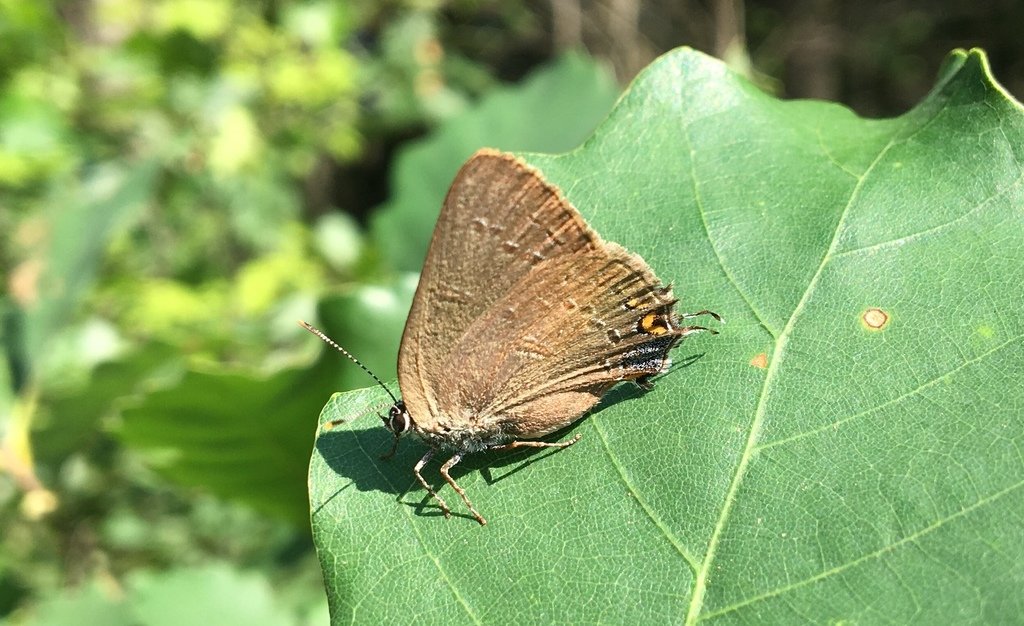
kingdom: Animalia
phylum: Arthropoda
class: Insecta
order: Lepidoptera
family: Lycaenidae
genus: Satyrium
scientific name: Satyrium edwardsii
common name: Edwards' Hairstreak
